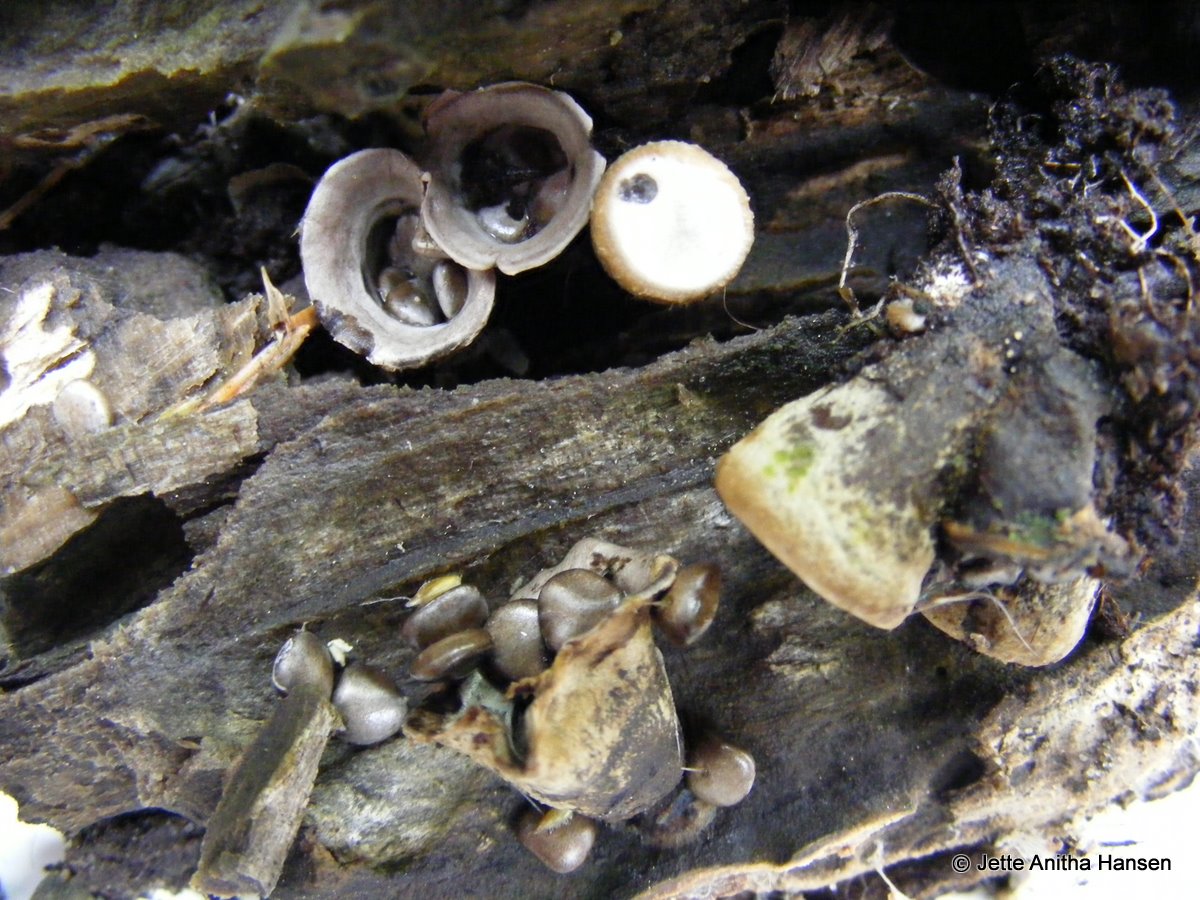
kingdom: Fungi
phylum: Basidiomycota
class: Agaricomycetes
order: Agaricales
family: Agaricaceae
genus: Cyathus
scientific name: Cyathus olla
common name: klokke-redesvamp
